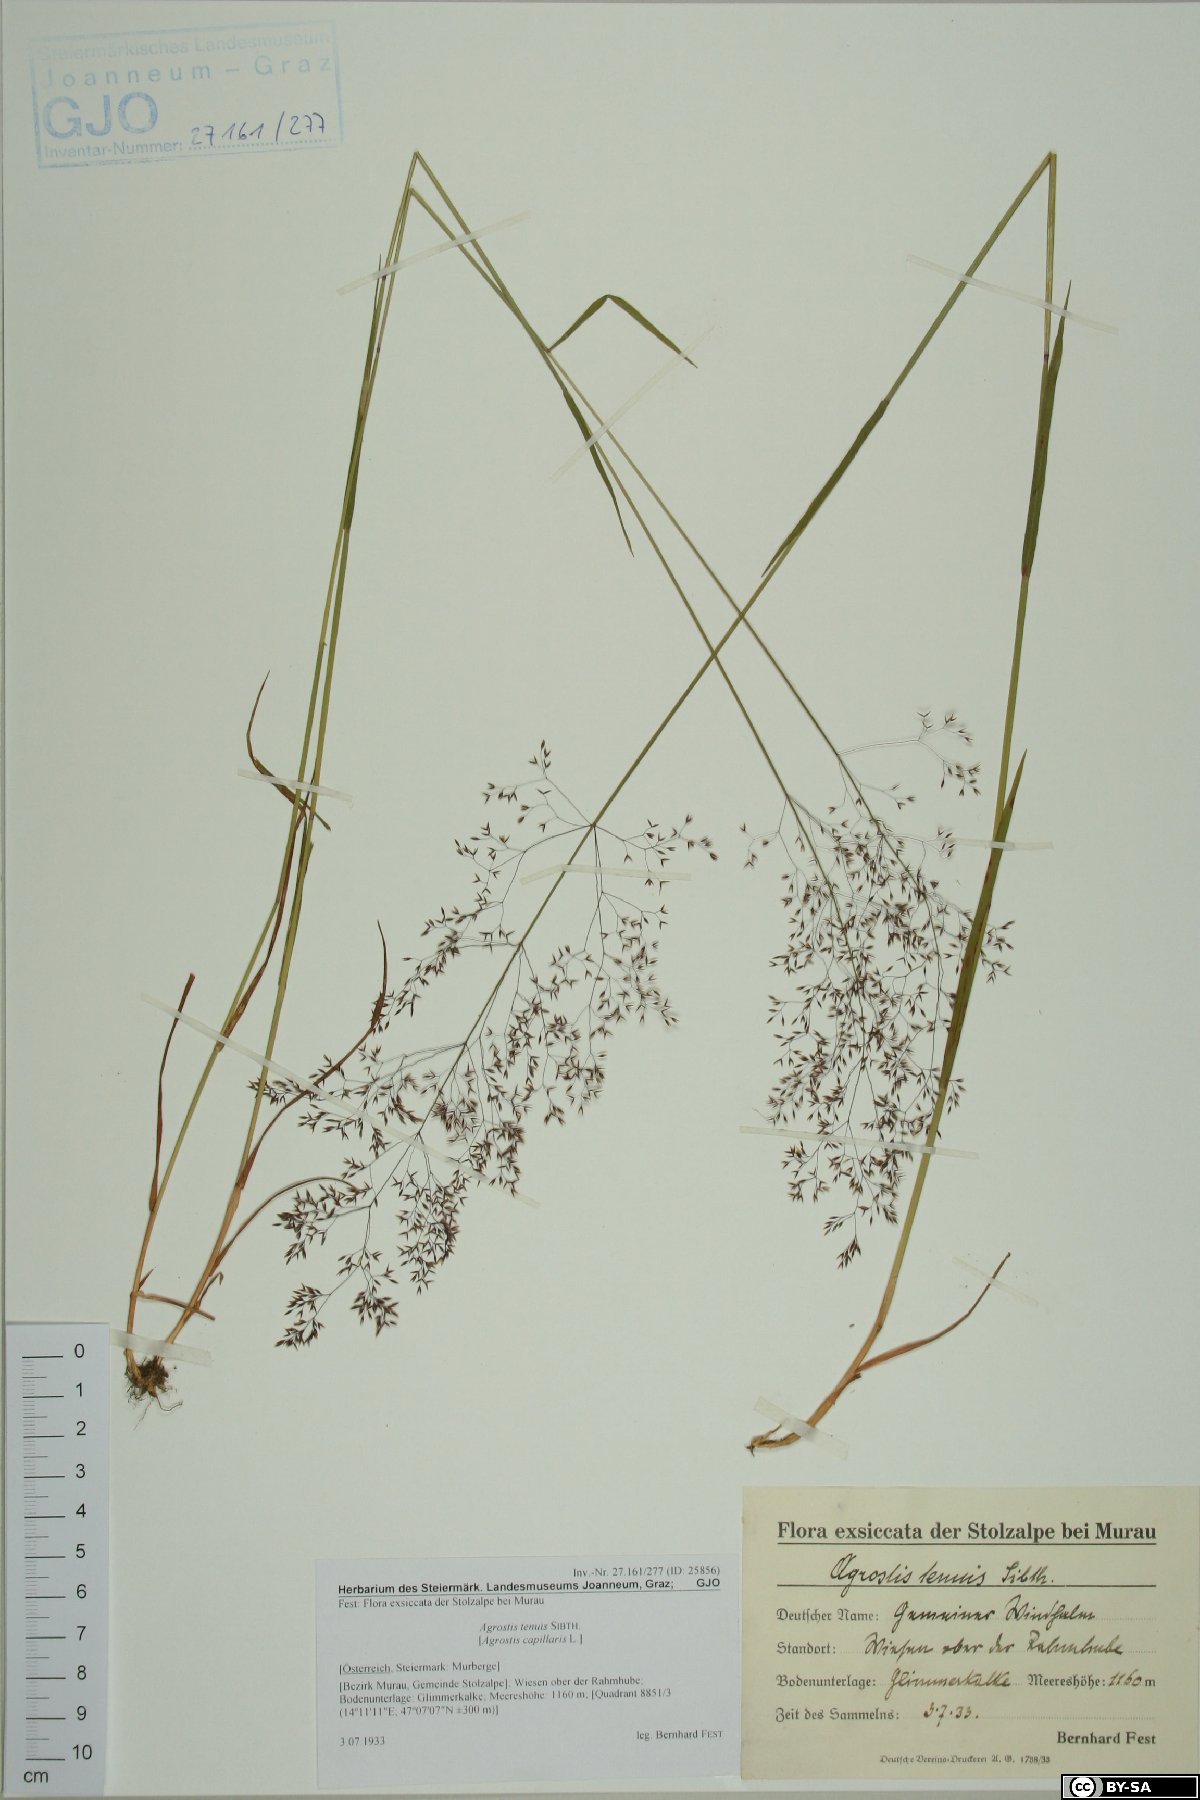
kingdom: Plantae
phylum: Tracheophyta
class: Liliopsida
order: Poales
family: Poaceae
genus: Agrostis
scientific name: Agrostis capillaris
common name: Colonial bentgrass
